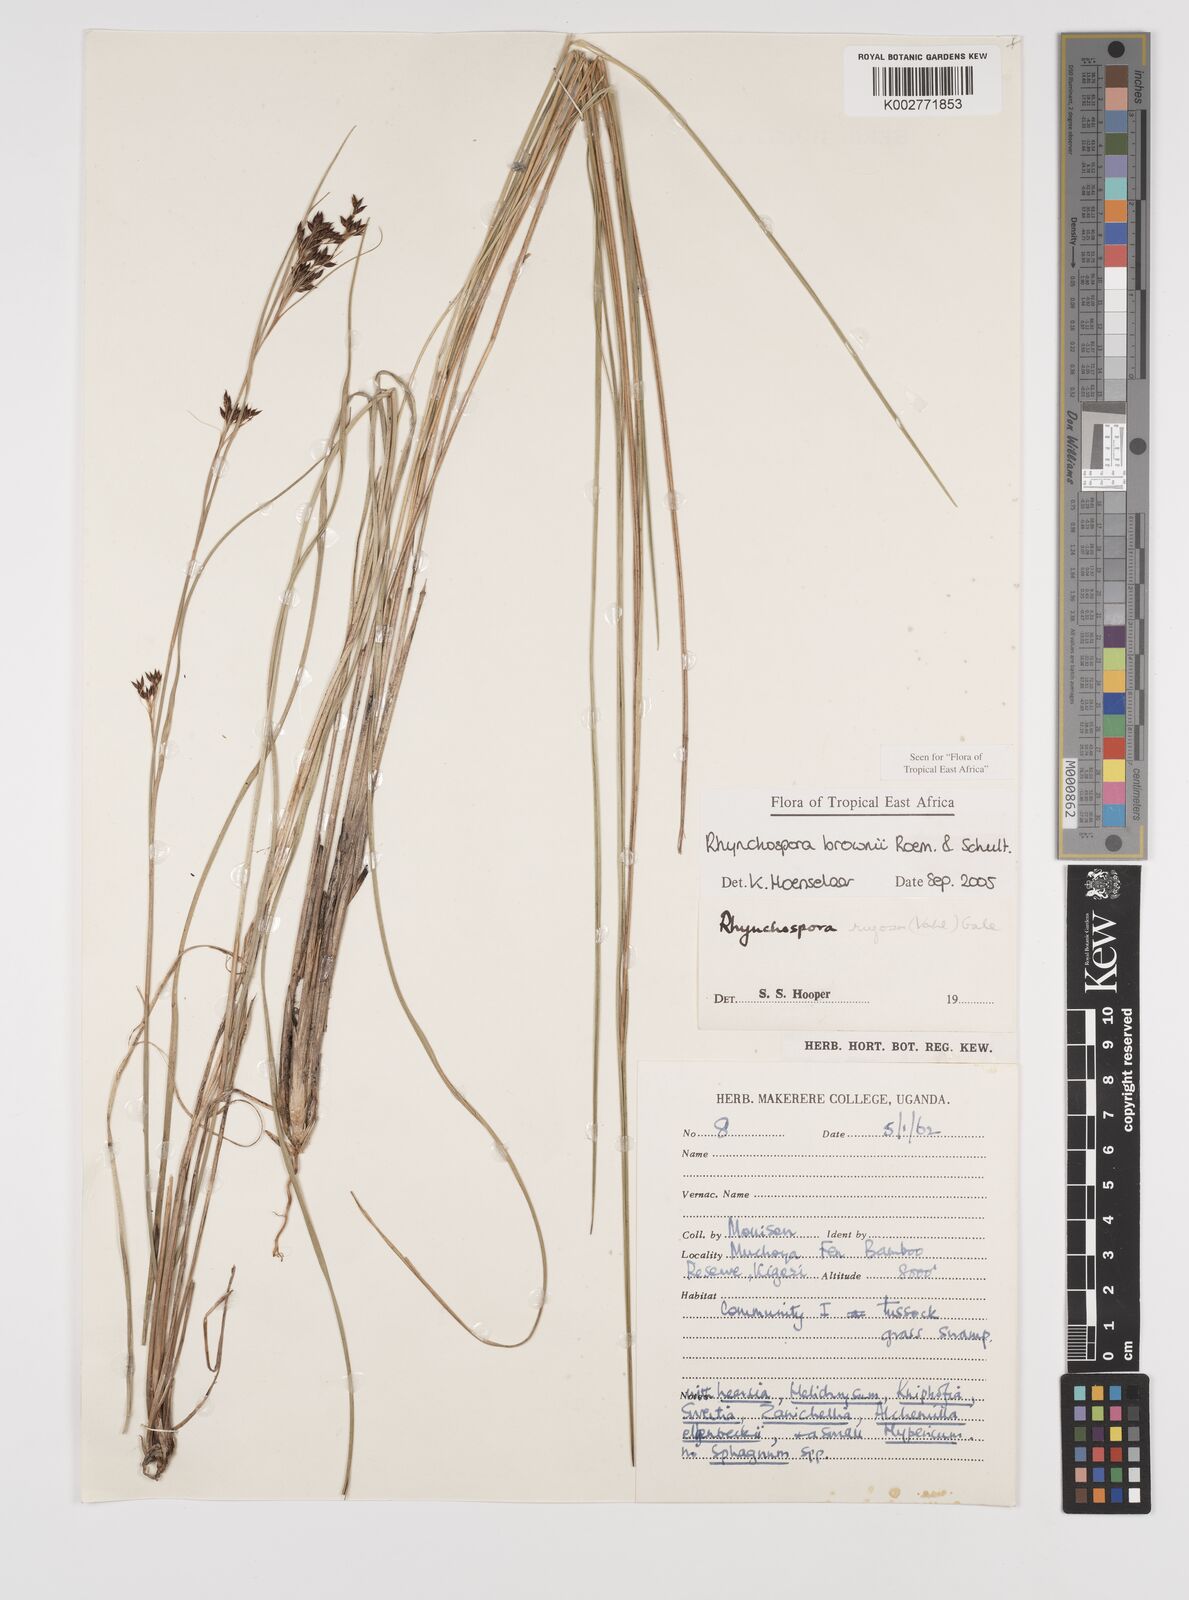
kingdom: Plantae
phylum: Tracheophyta
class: Liliopsida
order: Poales
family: Cyperaceae
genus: Rhynchospora
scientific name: Rhynchospora brownii
